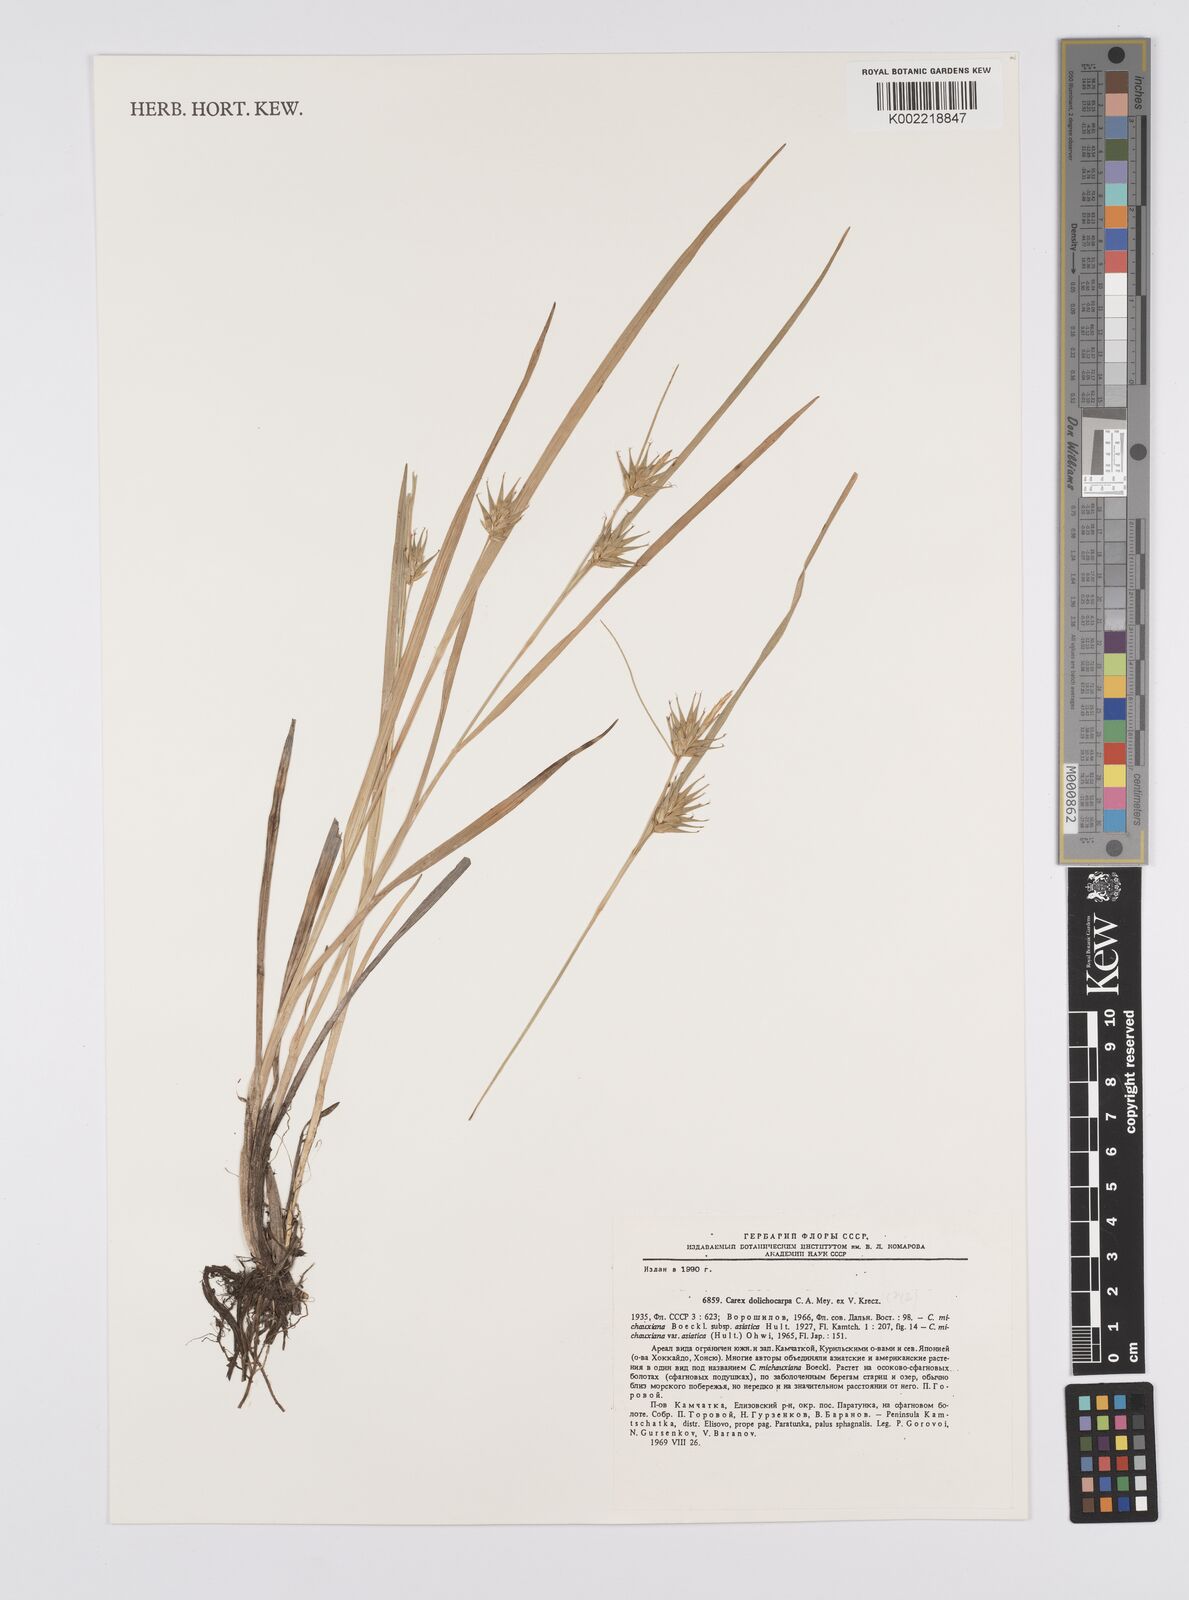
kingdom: Plantae
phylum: Tracheophyta
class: Liliopsida
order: Poales
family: Cyperaceae
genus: Carex
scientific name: Carex michauxiana
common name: Michaux's sedge
